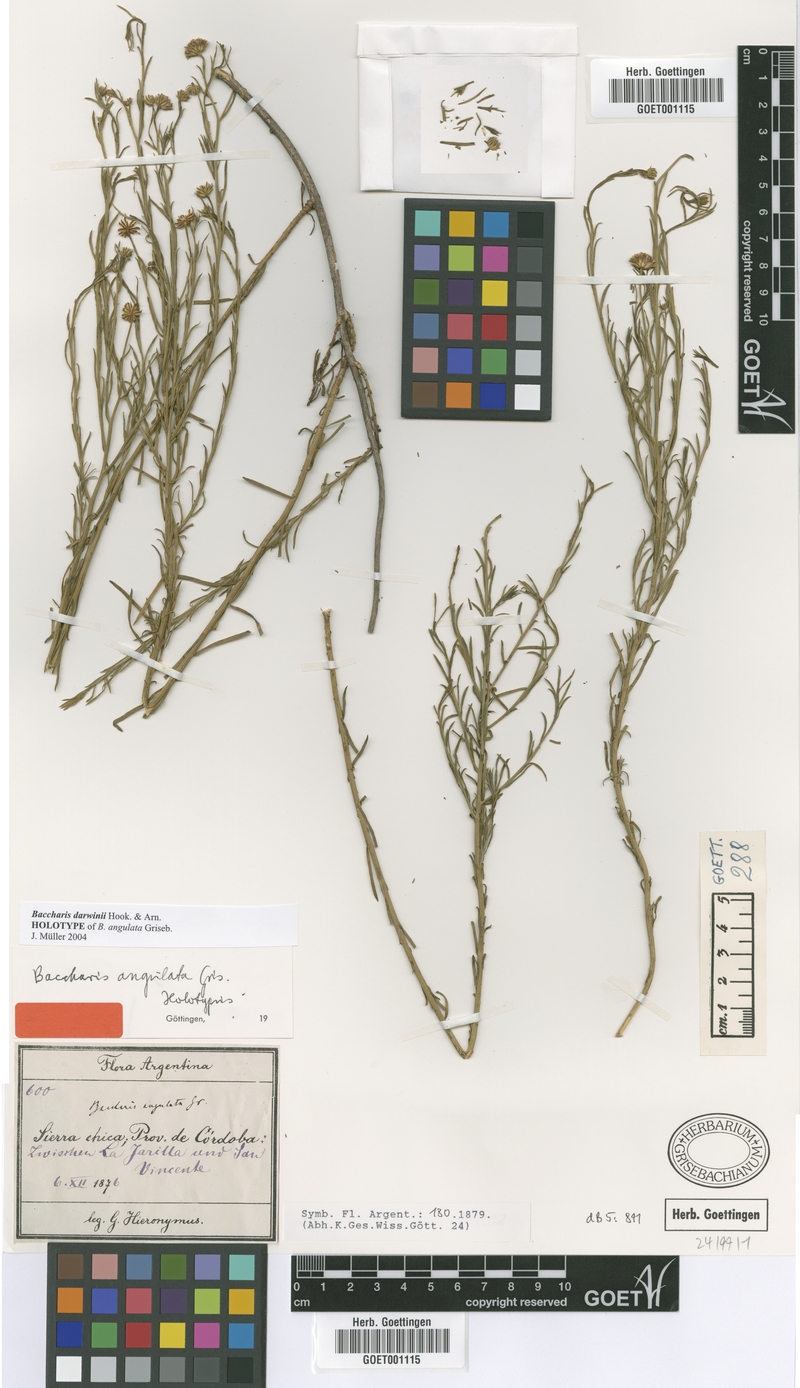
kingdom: Plantae
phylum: Tracheophyta
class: Magnoliopsida
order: Asterales
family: Asteraceae
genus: Baccharis
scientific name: Baccharis darwinii
